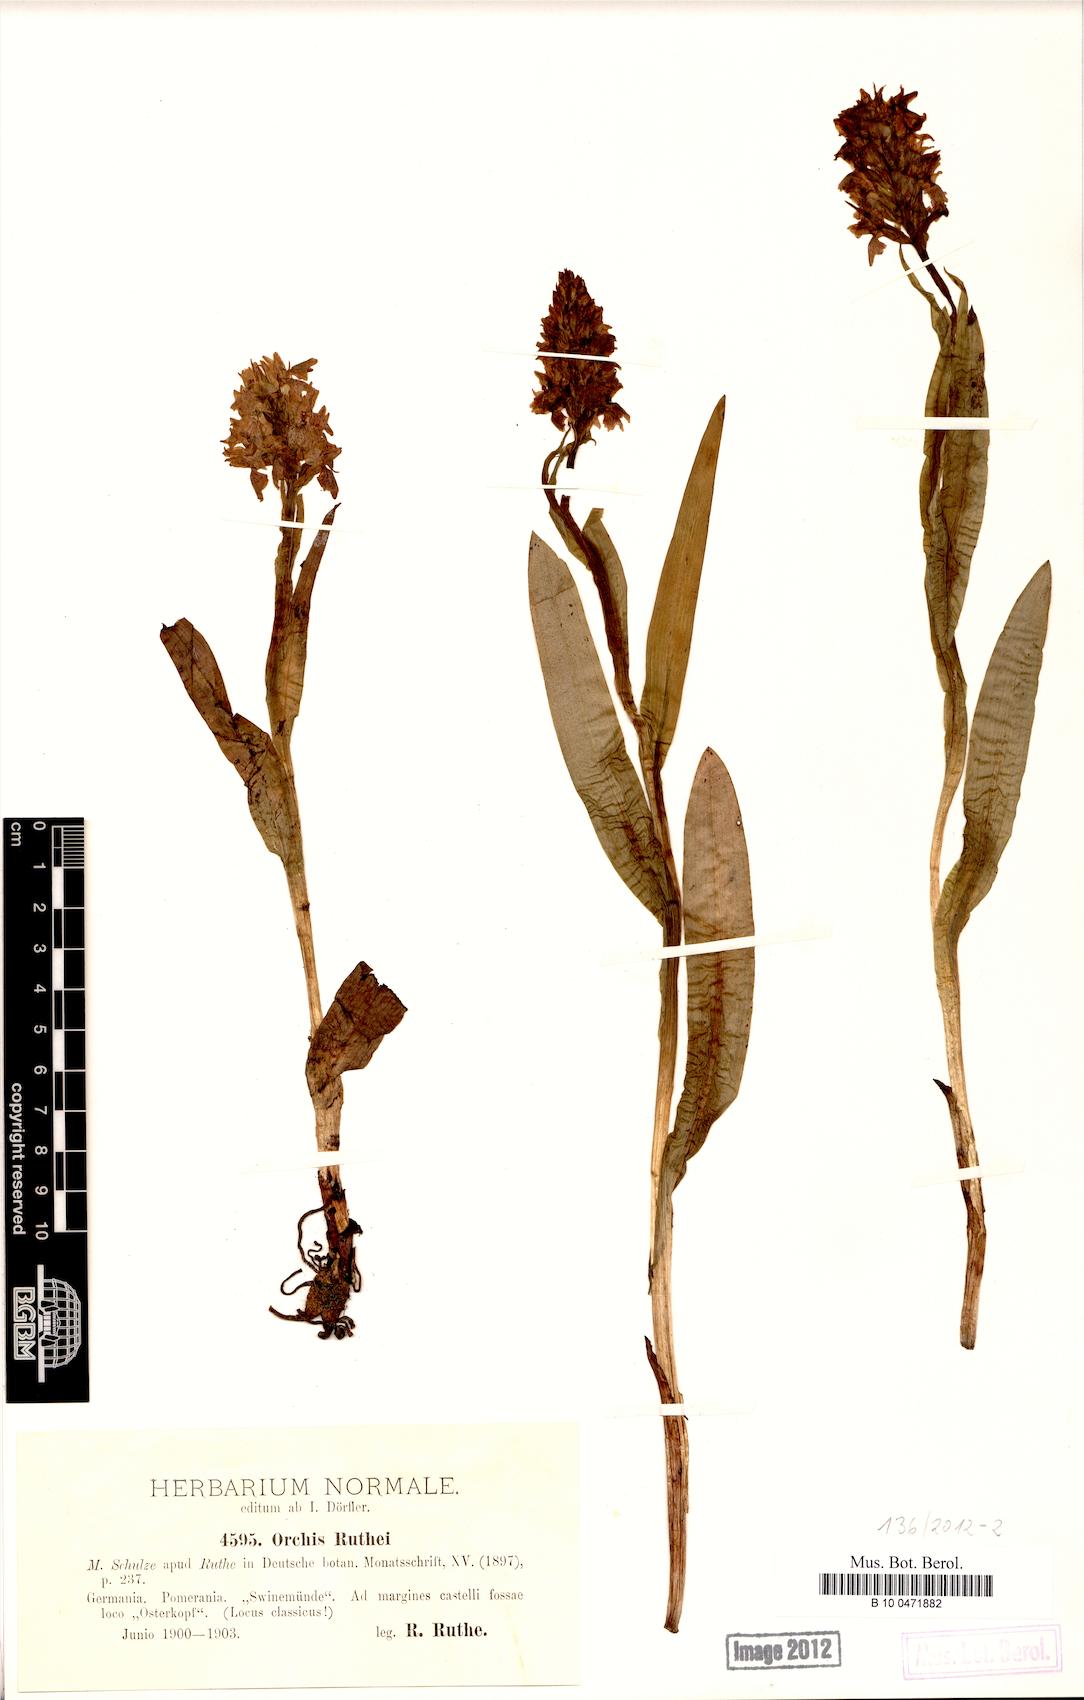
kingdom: Plantae
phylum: Tracheophyta
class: Liliopsida
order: Asparagales
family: Orchidaceae
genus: Dactylorhiza
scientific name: Dactylorhiza kerneriorum
